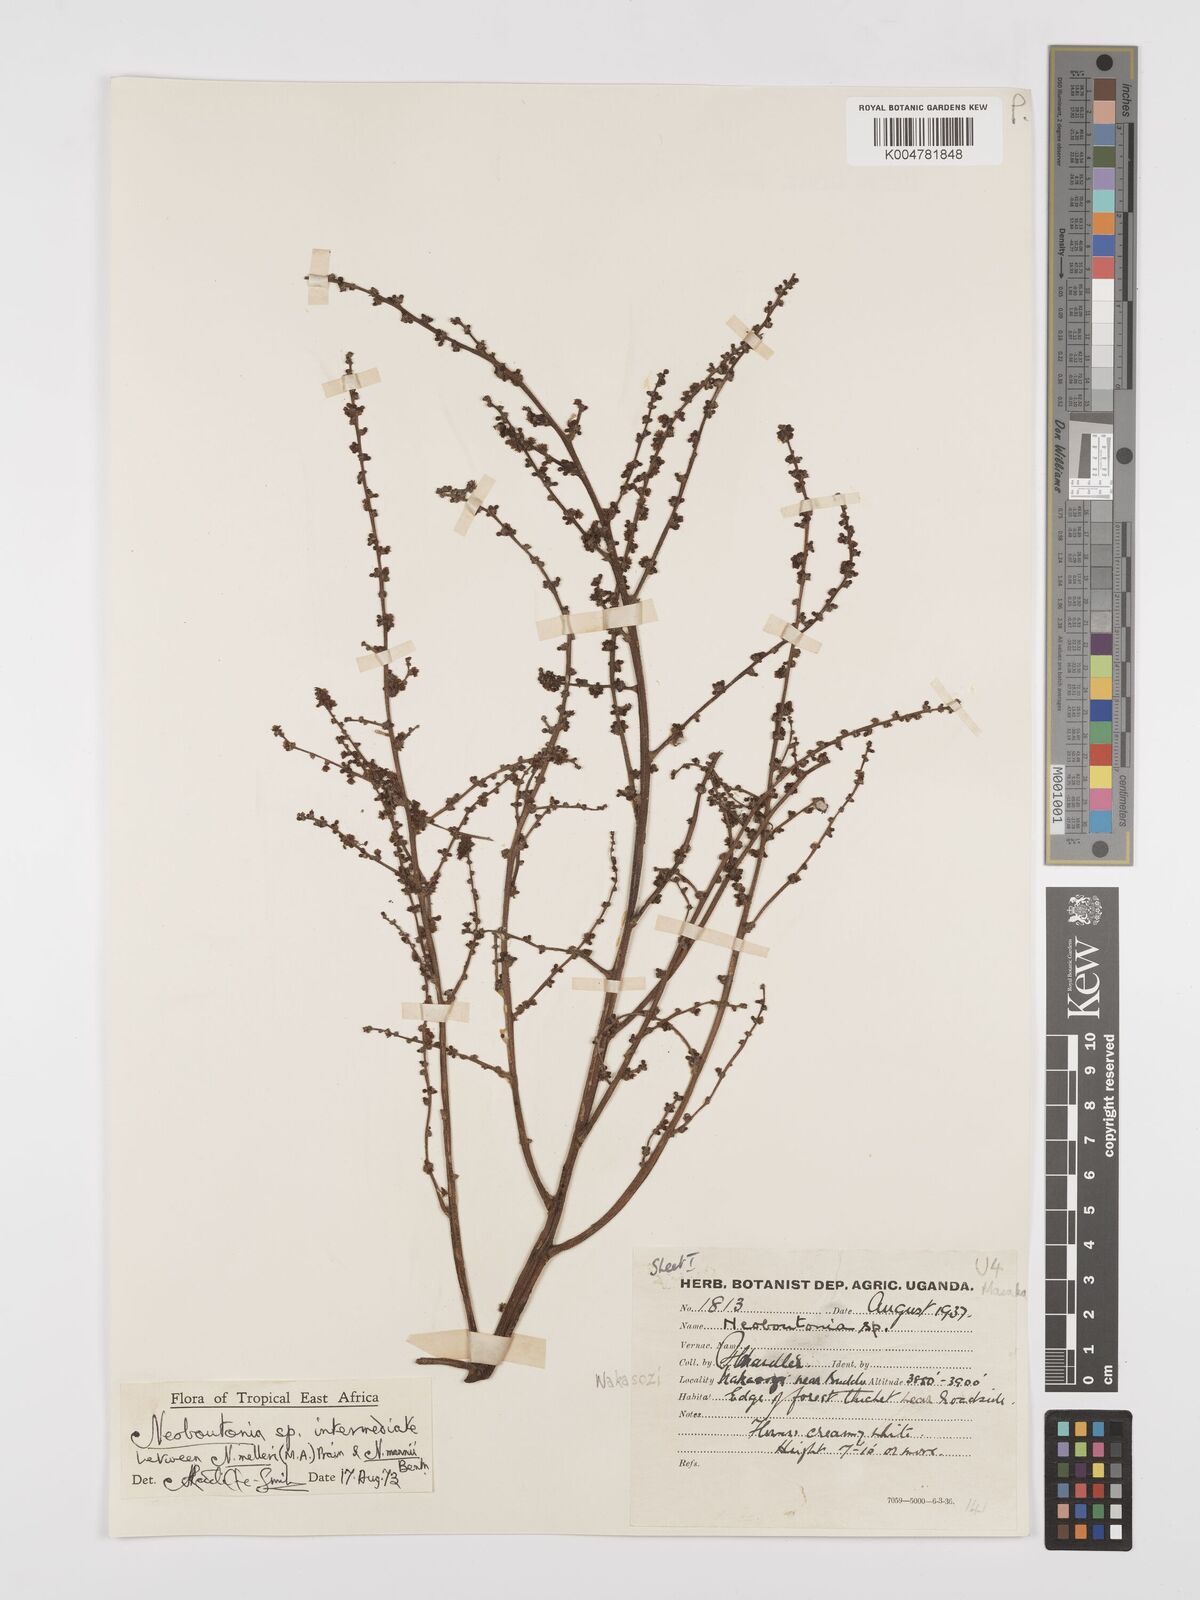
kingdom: Plantae
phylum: Tracheophyta
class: Magnoliopsida
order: Malpighiales
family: Euphorbiaceae
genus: Neoboutonia
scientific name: Neoboutonia melleri
